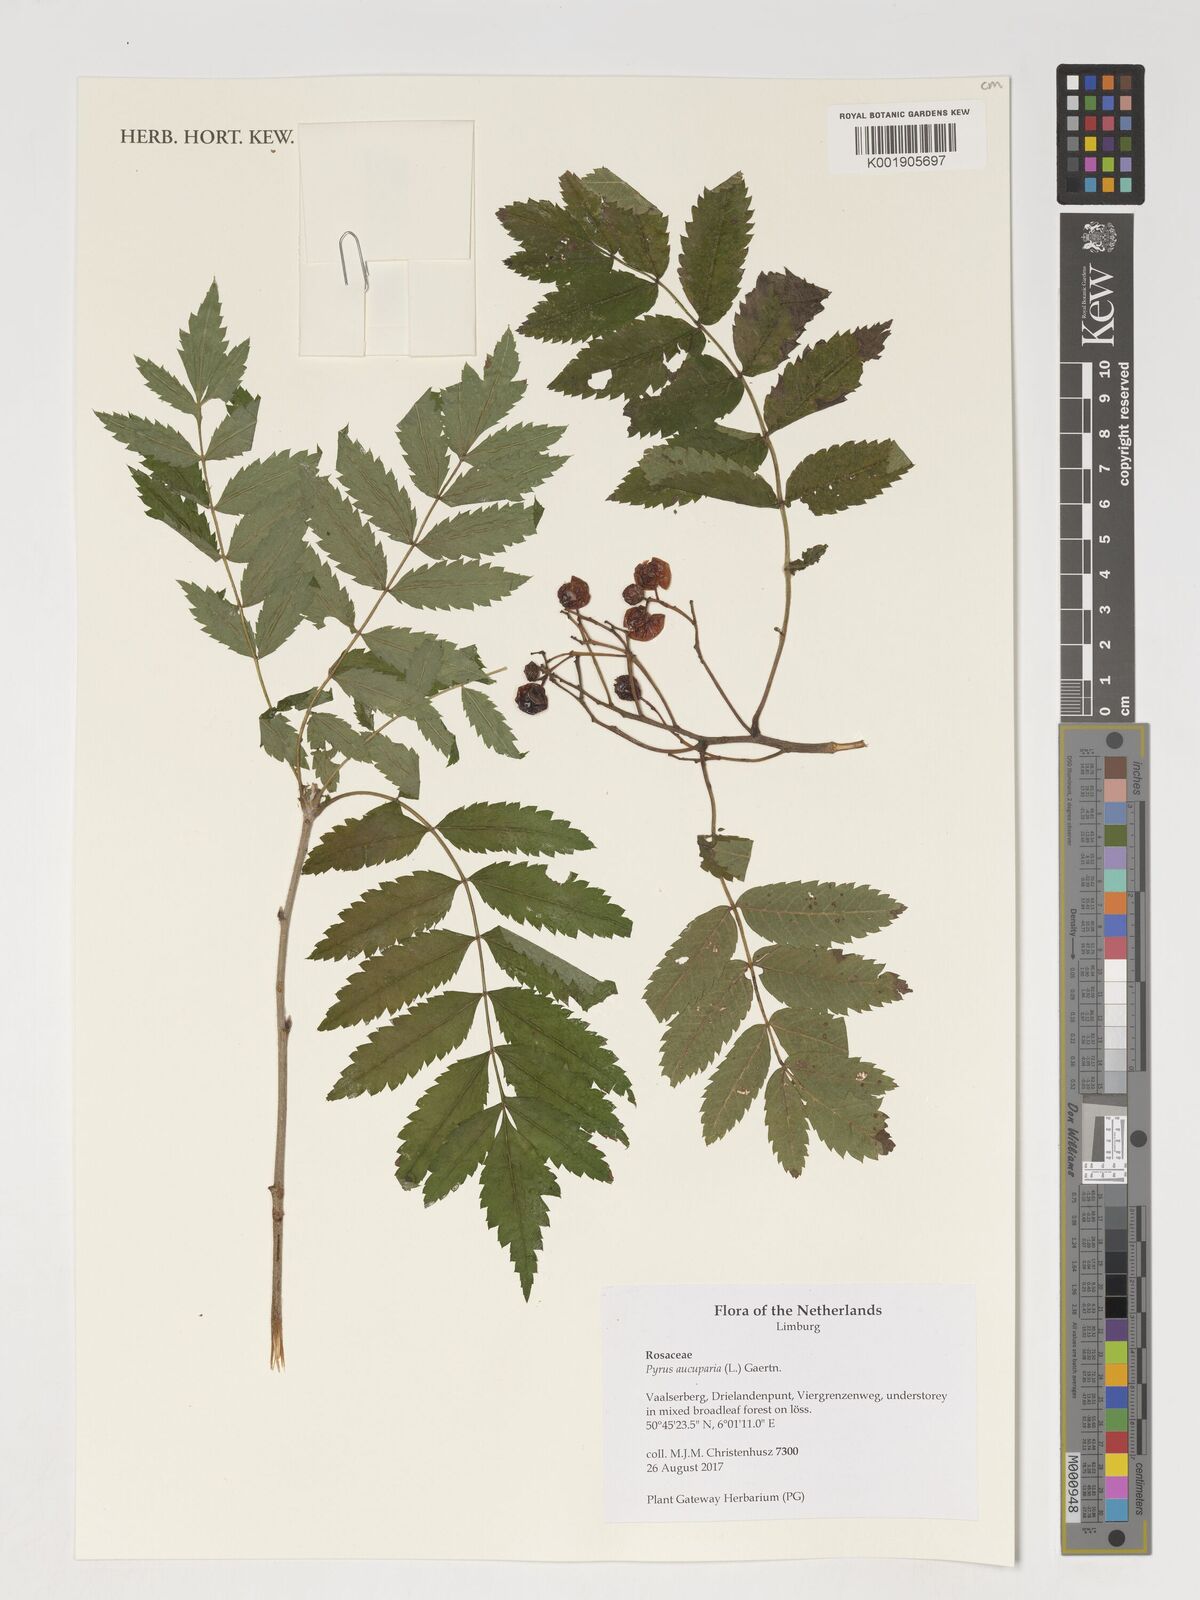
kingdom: Plantae
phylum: Tracheophyta
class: Magnoliopsida
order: Rosales
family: Rosaceae
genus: Sorbus
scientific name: Sorbus aucuparia
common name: Rowan
